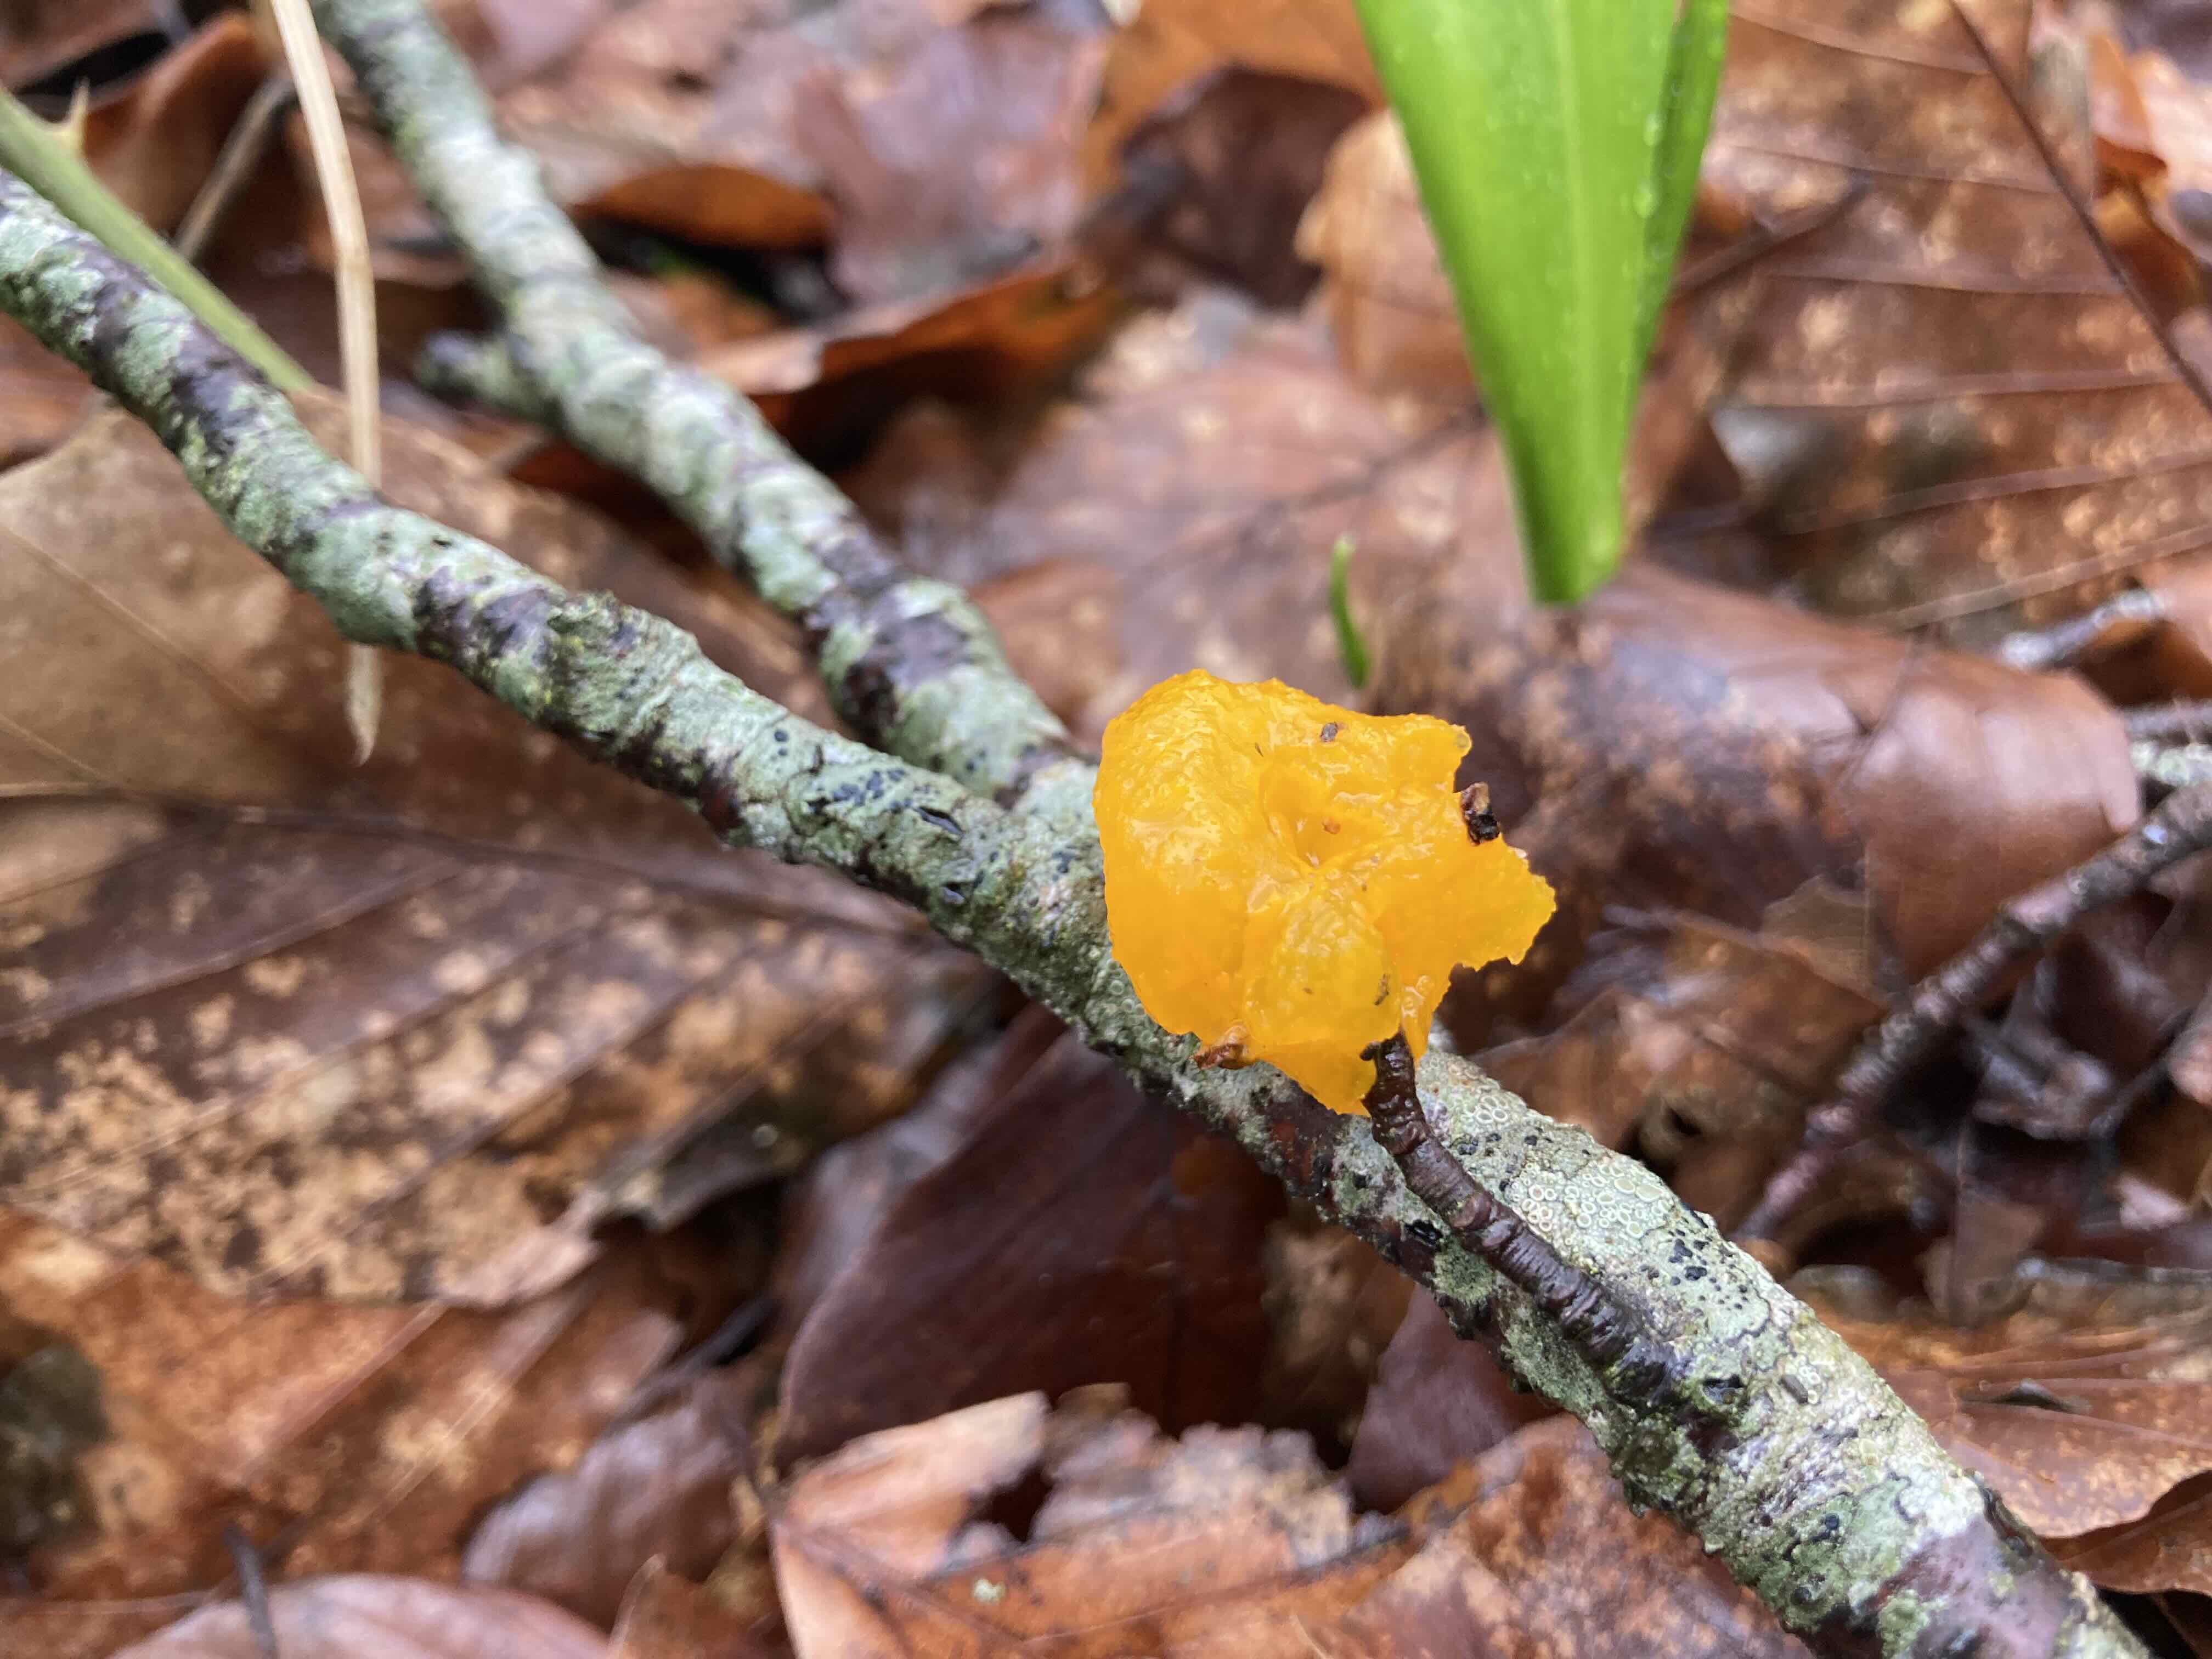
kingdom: Fungi
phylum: Basidiomycota
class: Tremellomycetes
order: Tremellales
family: Tremellaceae
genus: Tremella
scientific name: Tremella mesenterica
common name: gul bævresvamp
